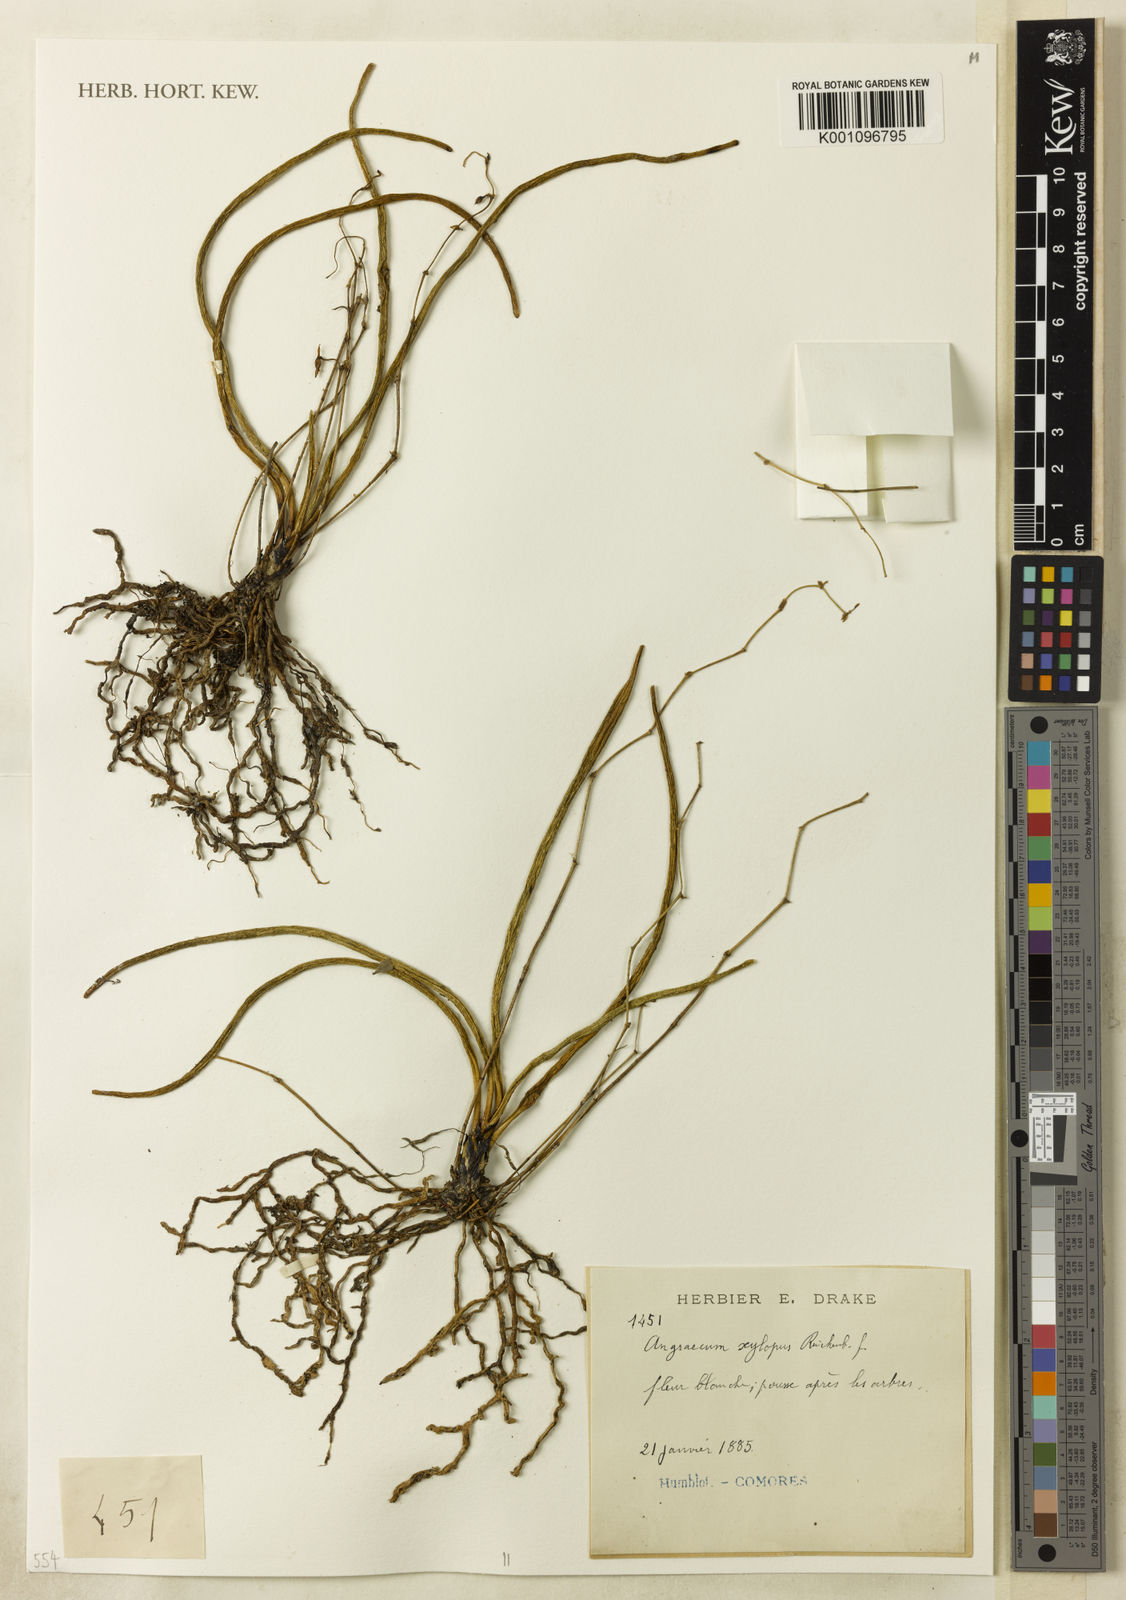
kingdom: Plantae
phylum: Tracheophyta
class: Liliopsida
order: Asparagales
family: Orchidaceae
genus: Angraecum
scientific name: Angraecum xylopus
